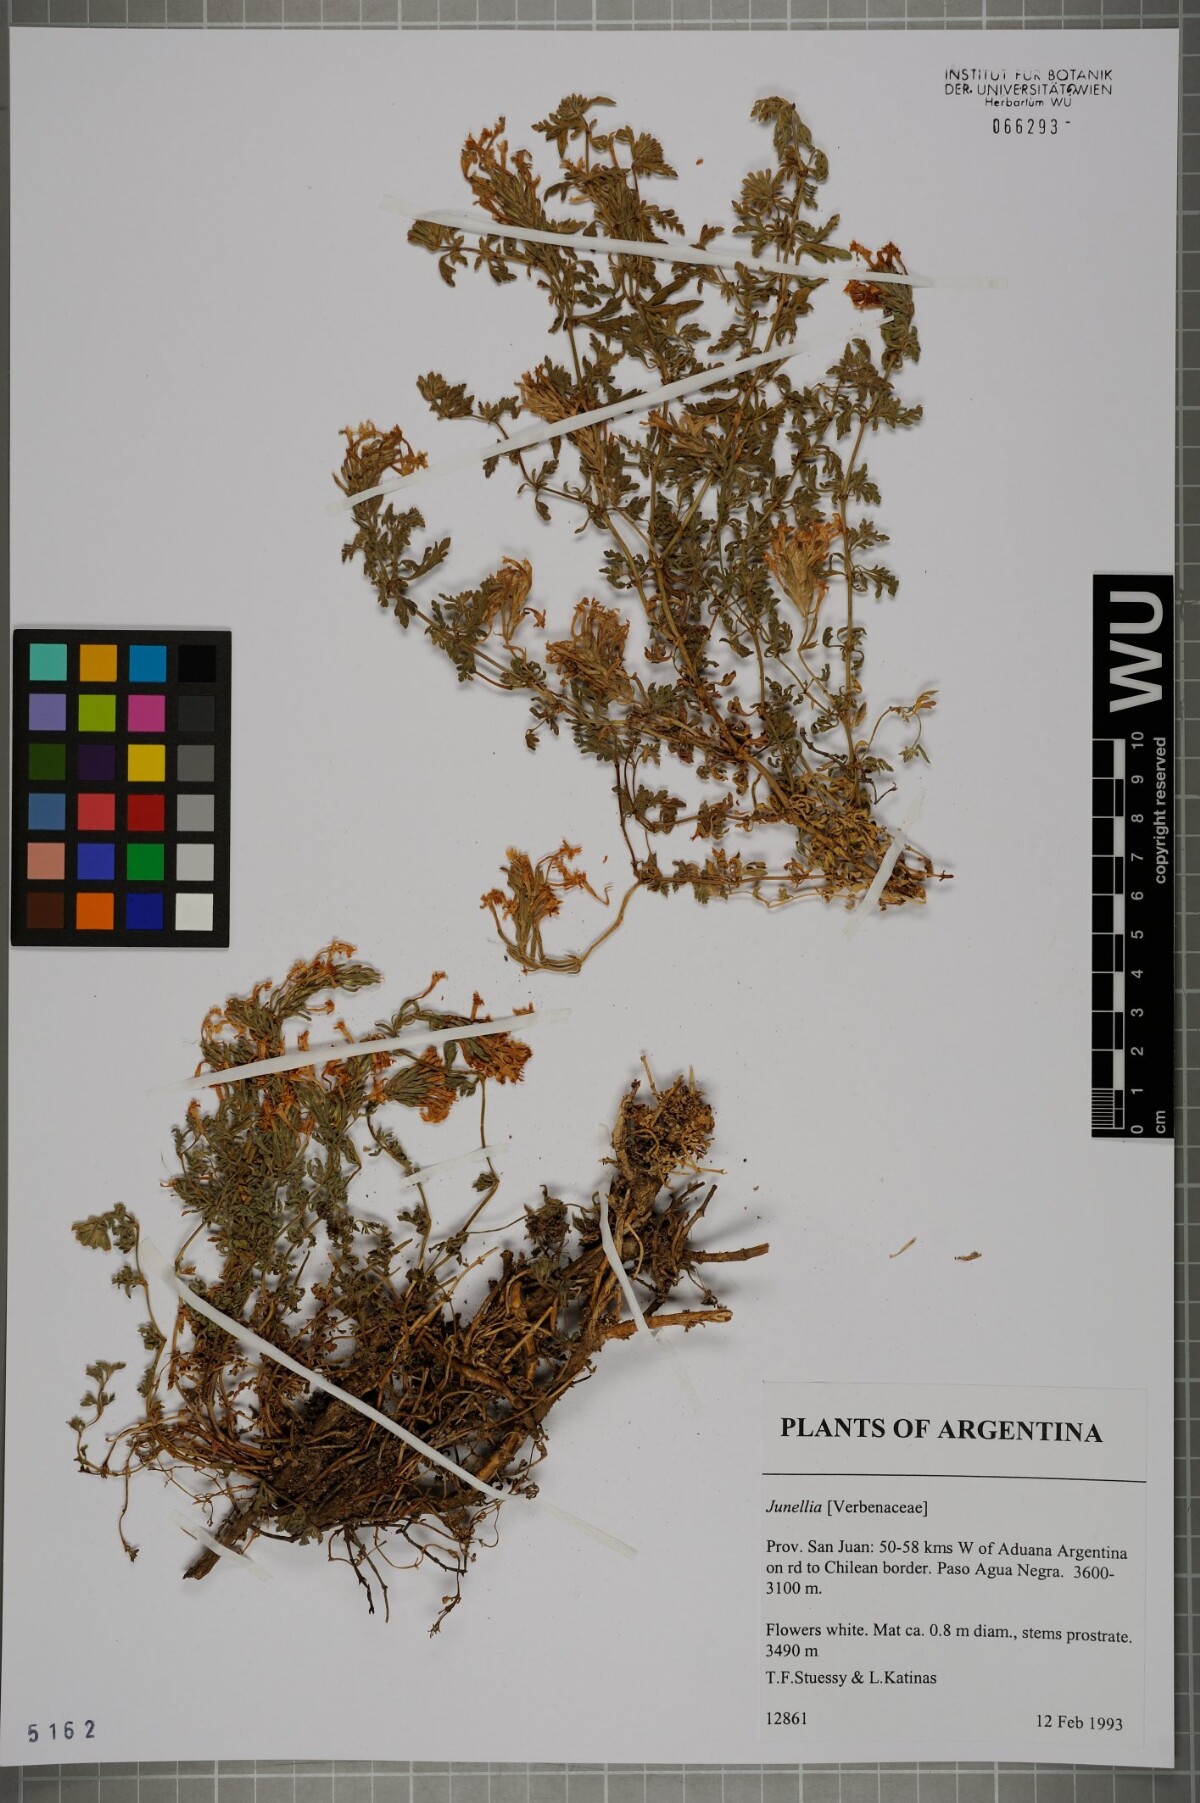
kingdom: Plantae
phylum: Tracheophyta
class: Magnoliopsida
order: Lamiales
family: Verbenaceae
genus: Junellia
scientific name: Junellia
